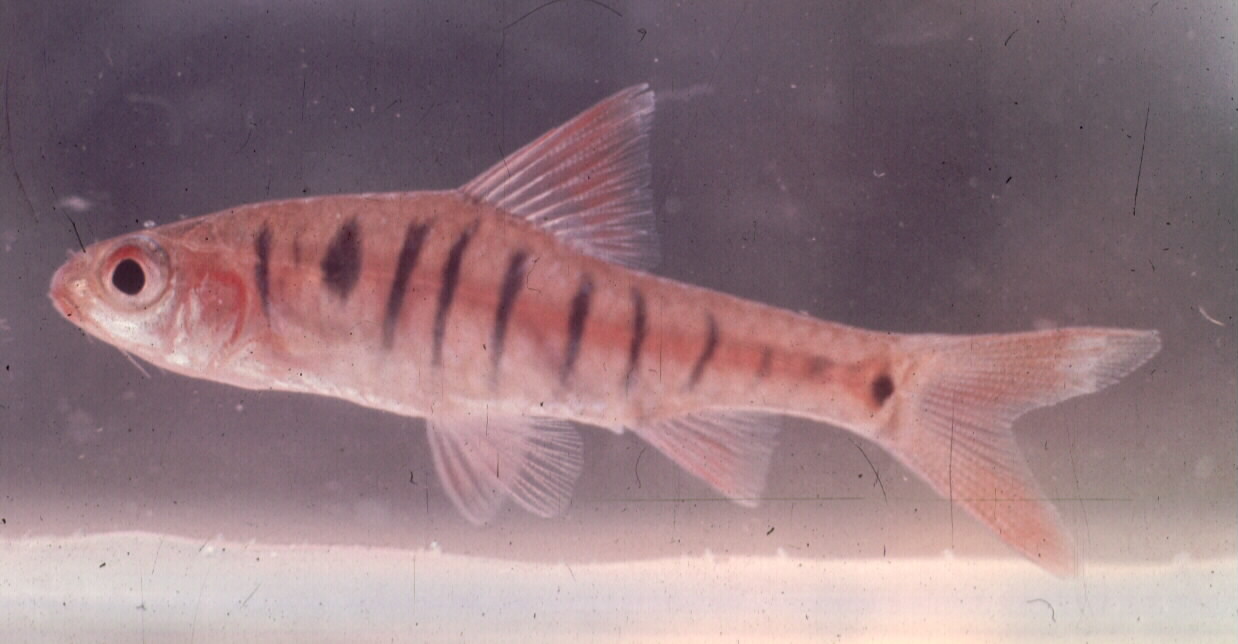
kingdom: Animalia
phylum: Chordata
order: Cypriniformes
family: Cyprinidae
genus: Enteromius
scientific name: Enteromius fasciolatus
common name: Red barb
